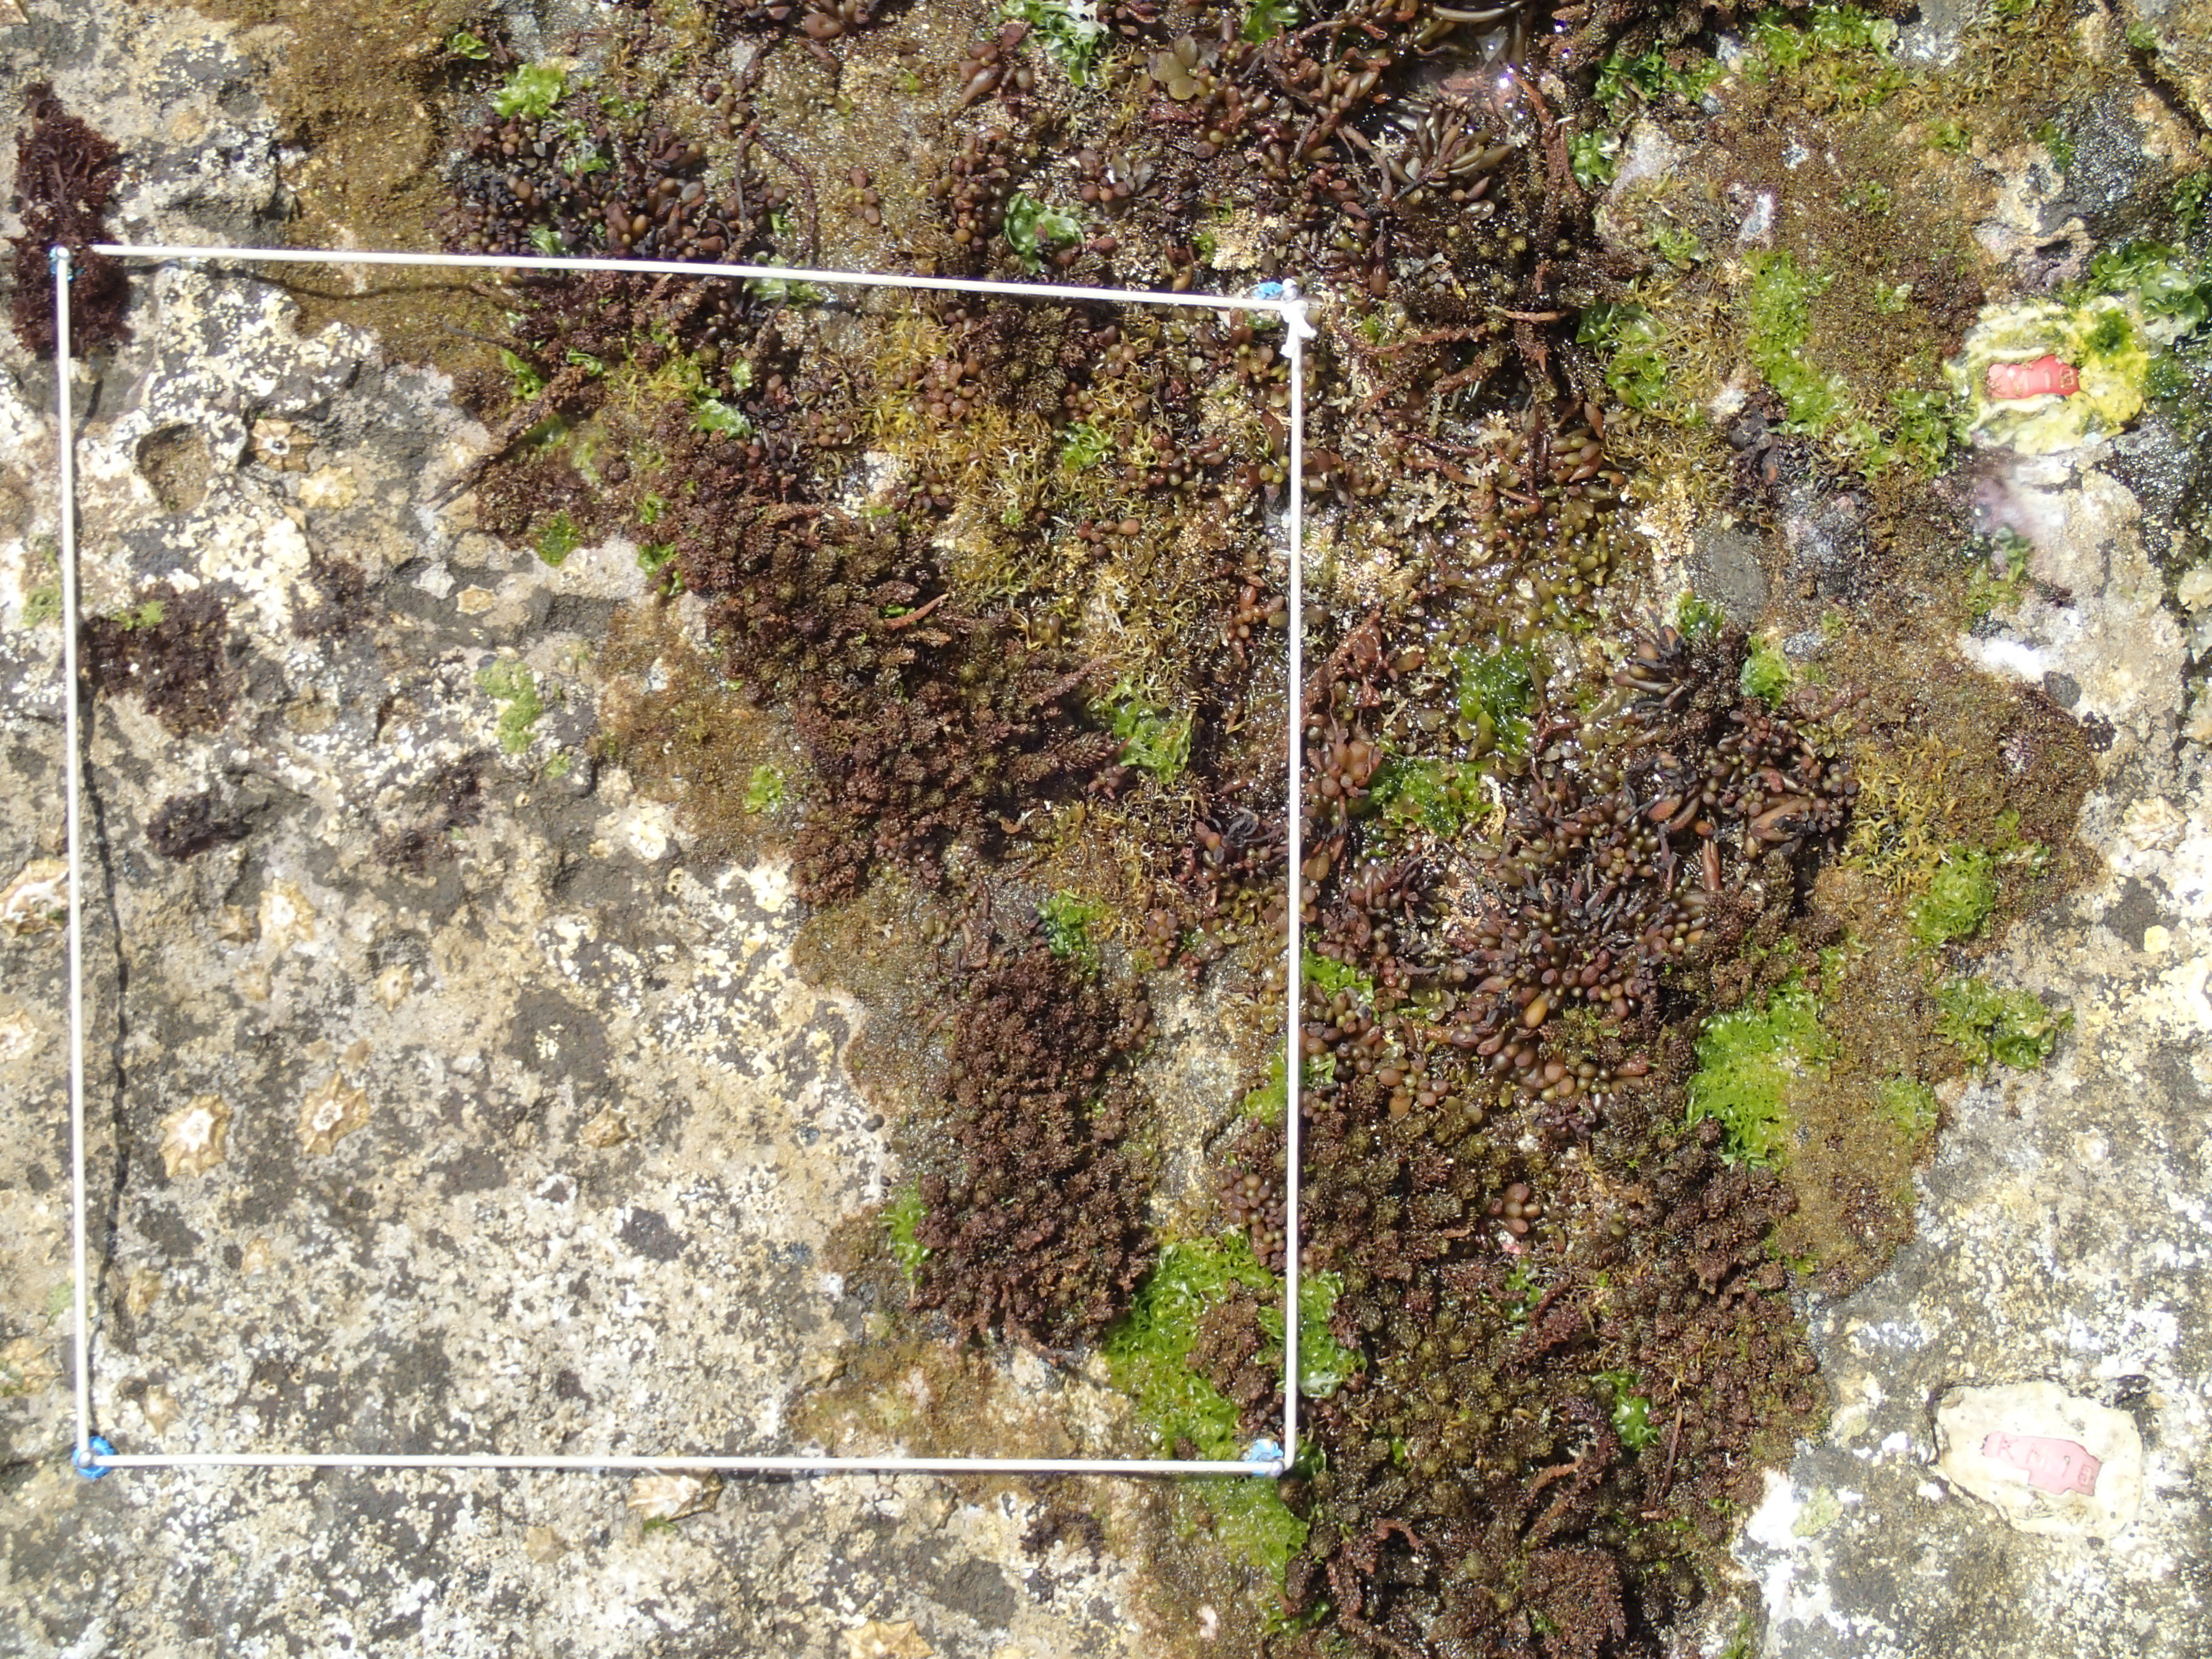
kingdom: Chromista
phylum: Ochrophyta
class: Phaeophyceae
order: Fucales
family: Sargassaceae
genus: Sargassum
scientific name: Sargassum fusiforme
